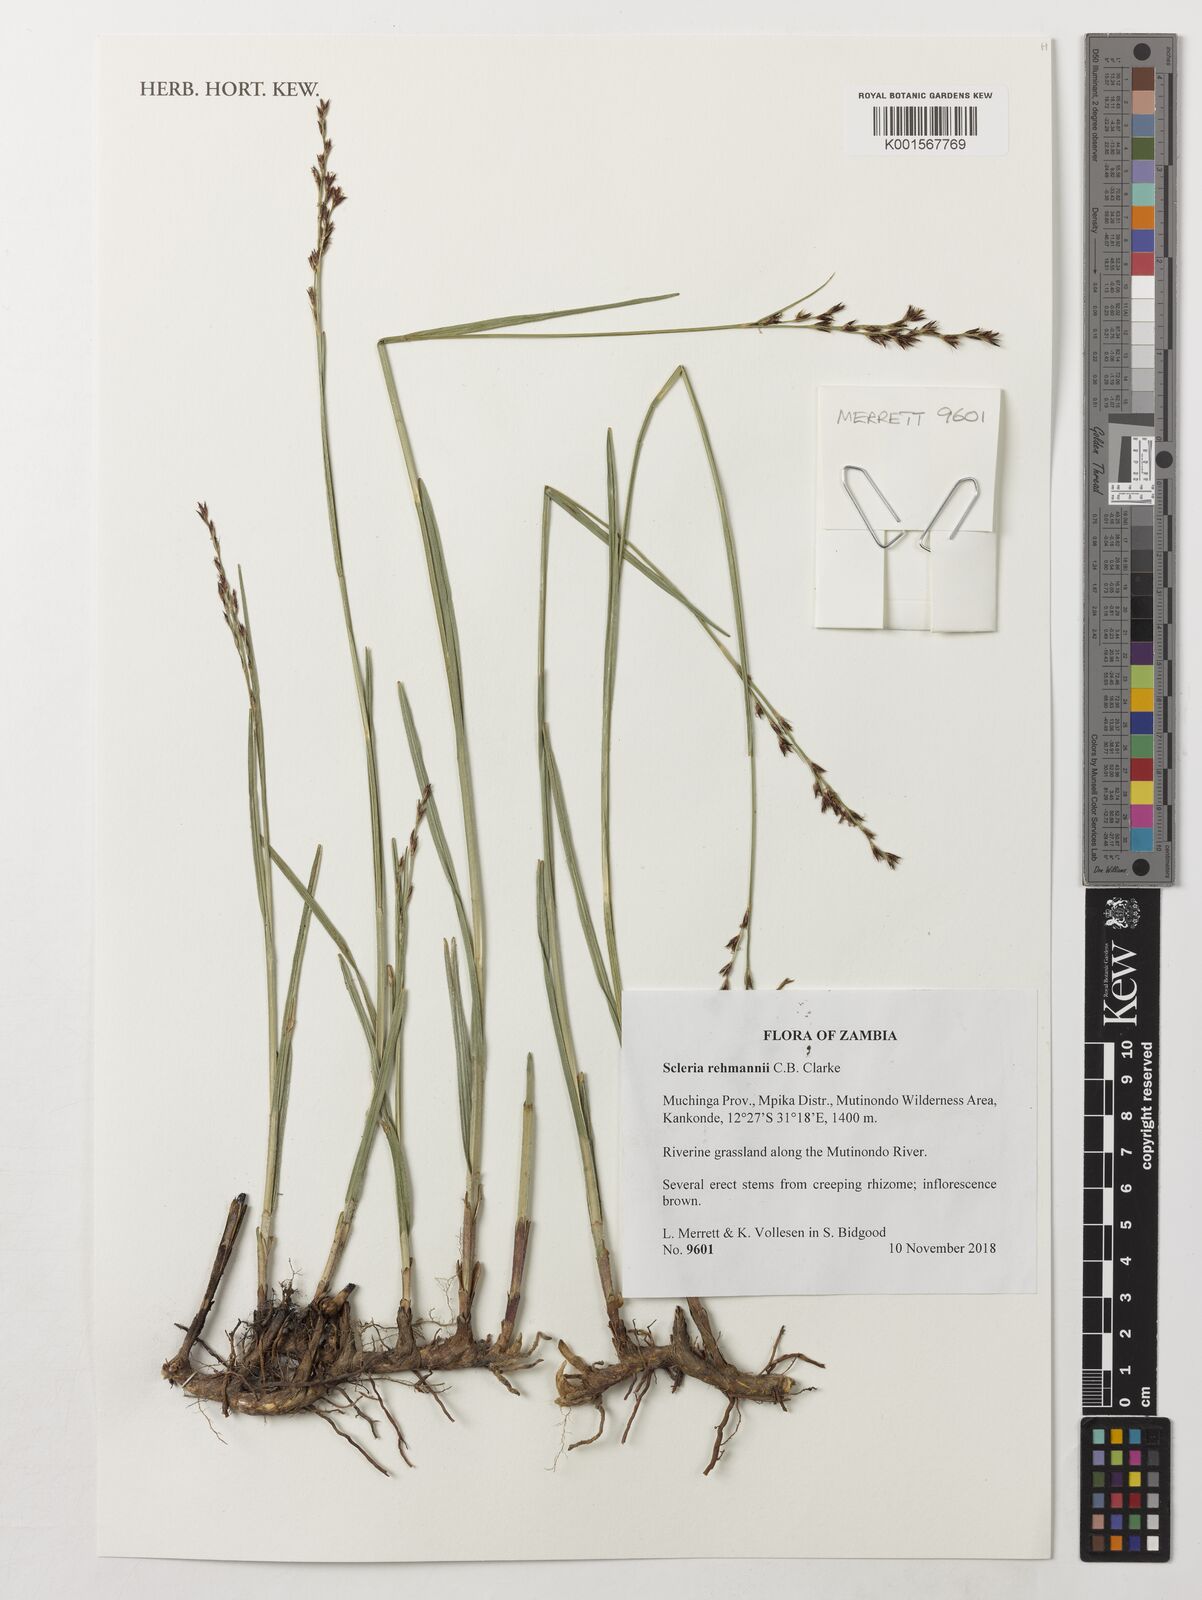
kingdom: Plantae
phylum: Tracheophyta
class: Liliopsida
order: Poales
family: Cyperaceae
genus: Scleria
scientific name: Scleria rehmannii
